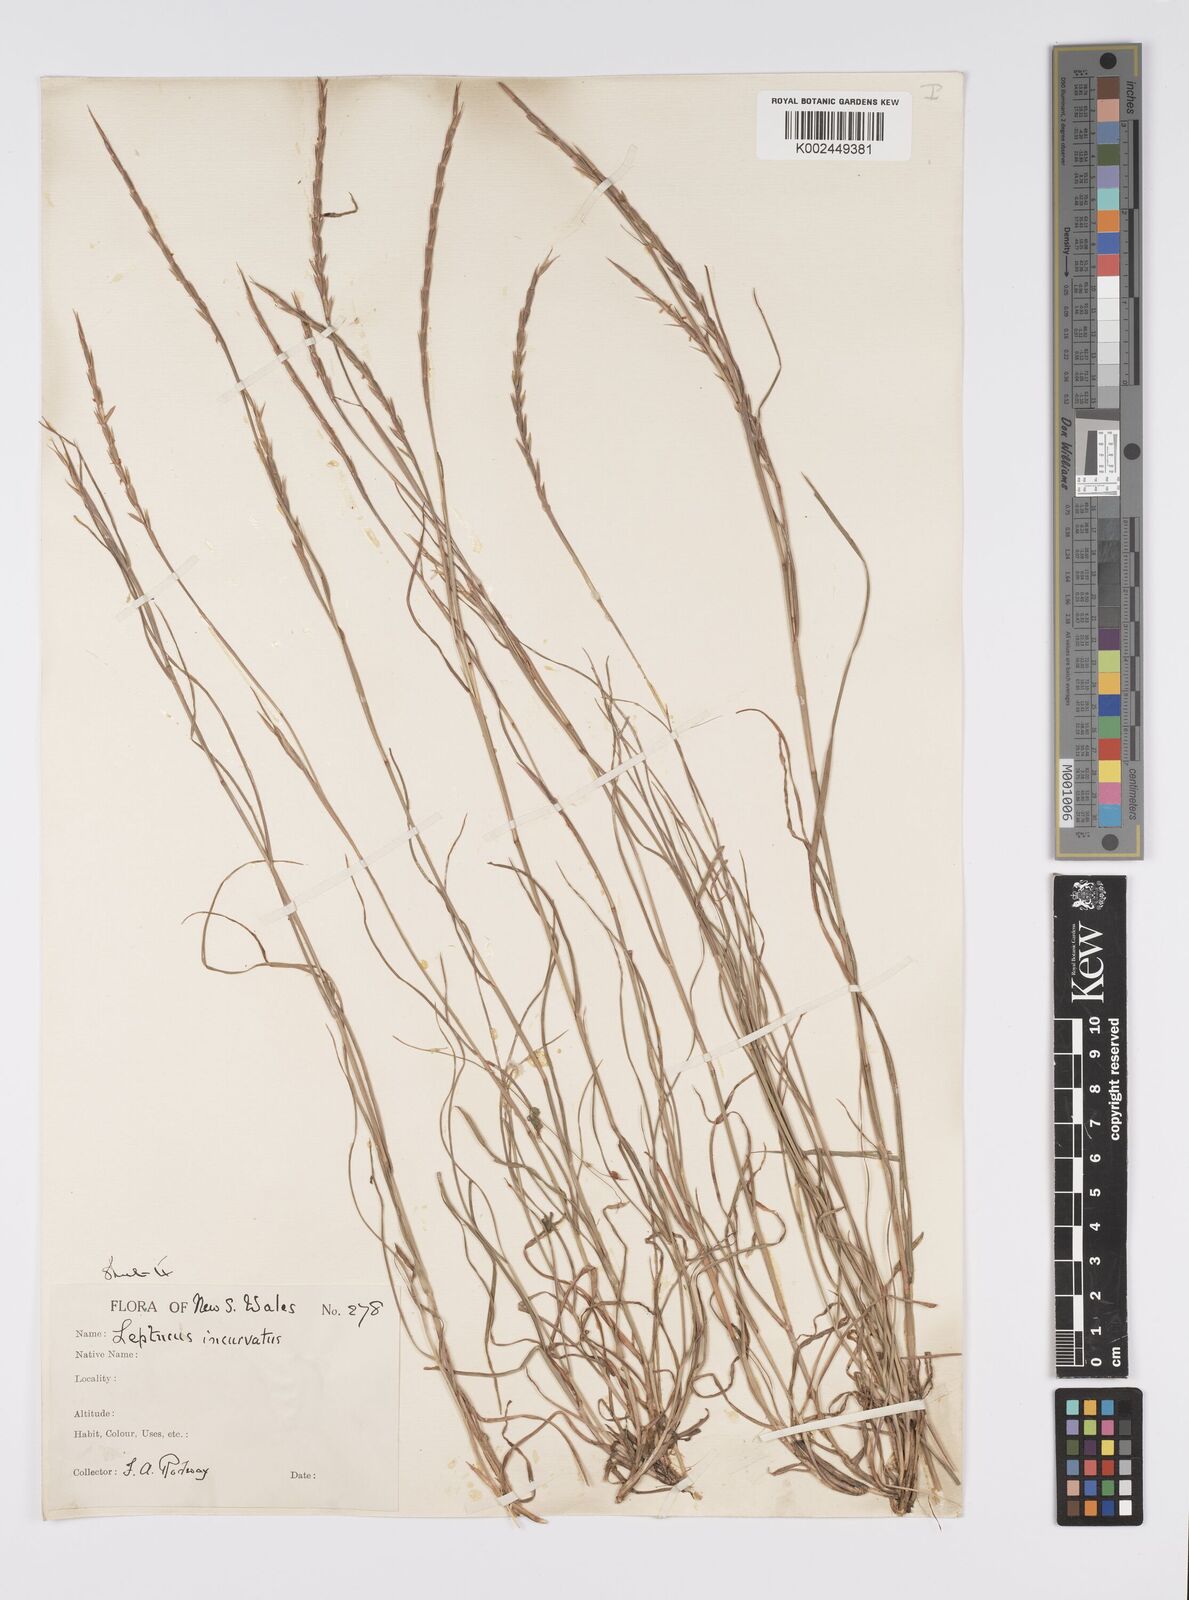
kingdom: Plantae
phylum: Tracheophyta
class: Liliopsida
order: Poales
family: Poaceae
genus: Hemarthria
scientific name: Hemarthria uncinata
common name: Matgrass
